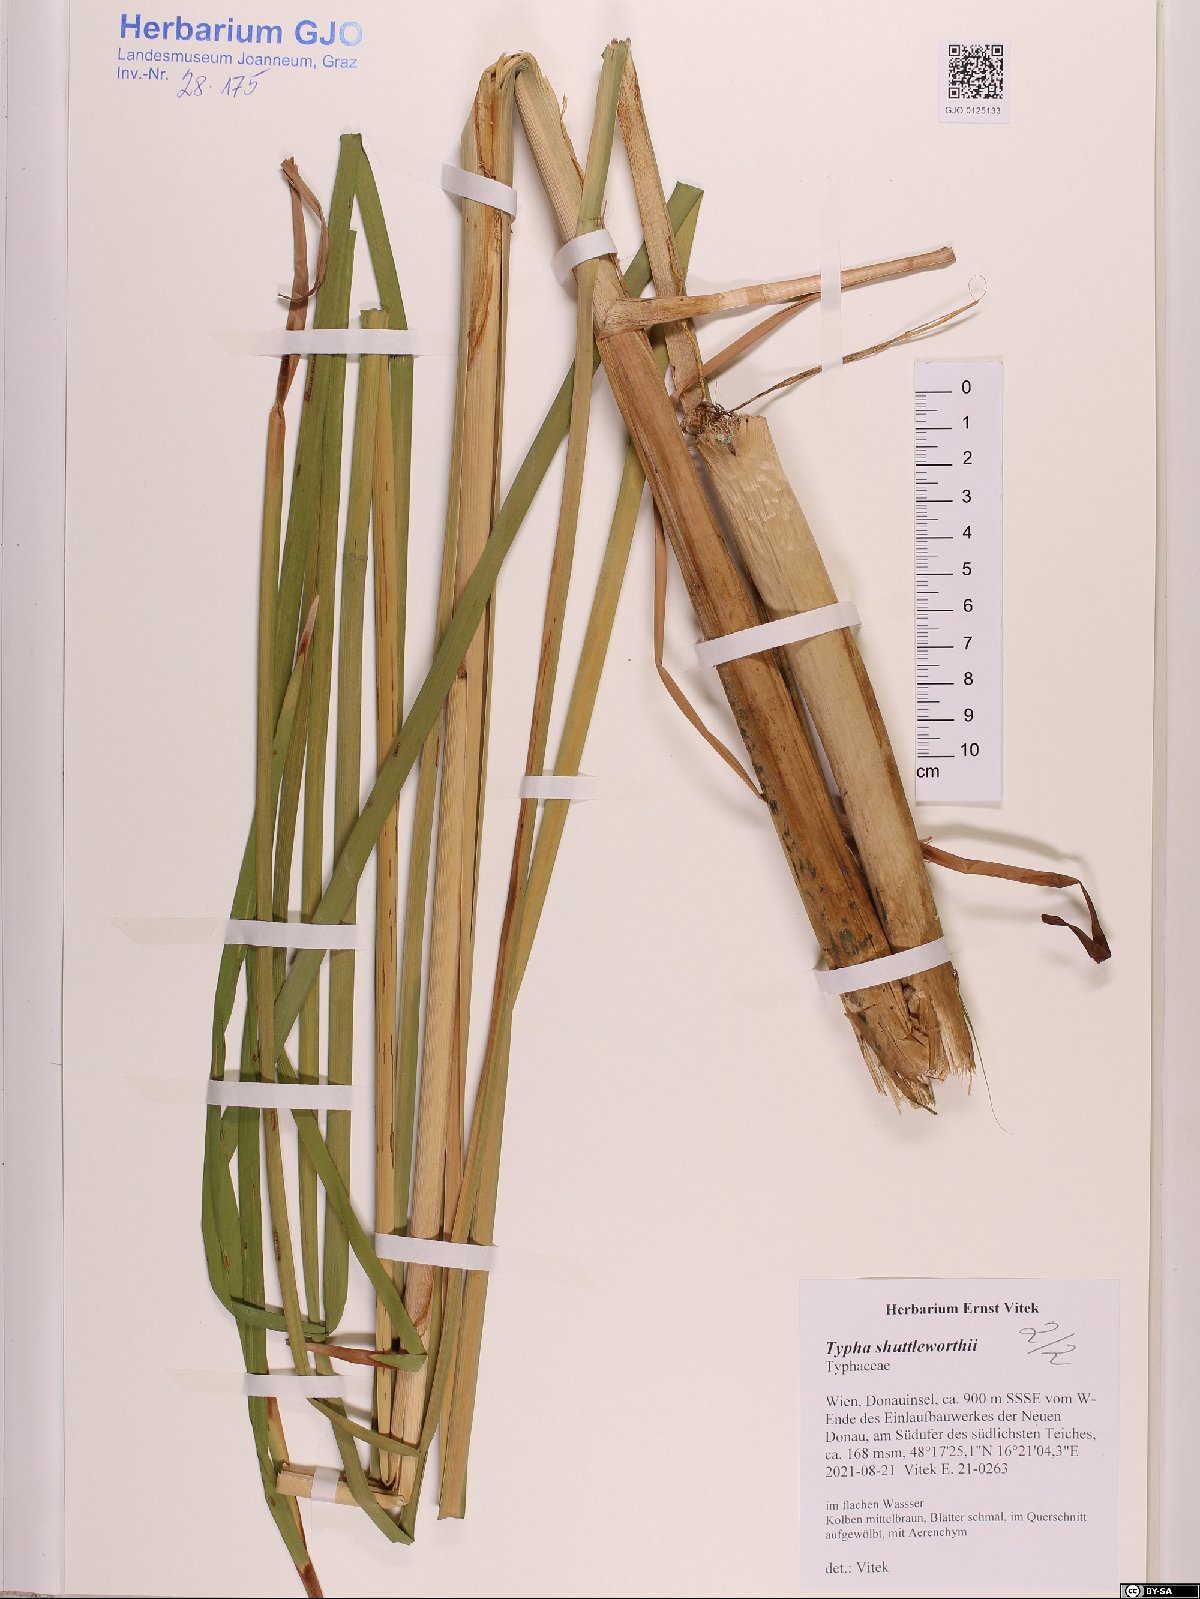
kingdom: Plantae
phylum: Tracheophyta
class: Liliopsida
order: Poales
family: Typhaceae
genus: Typha
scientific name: Typha shuttleworthii
